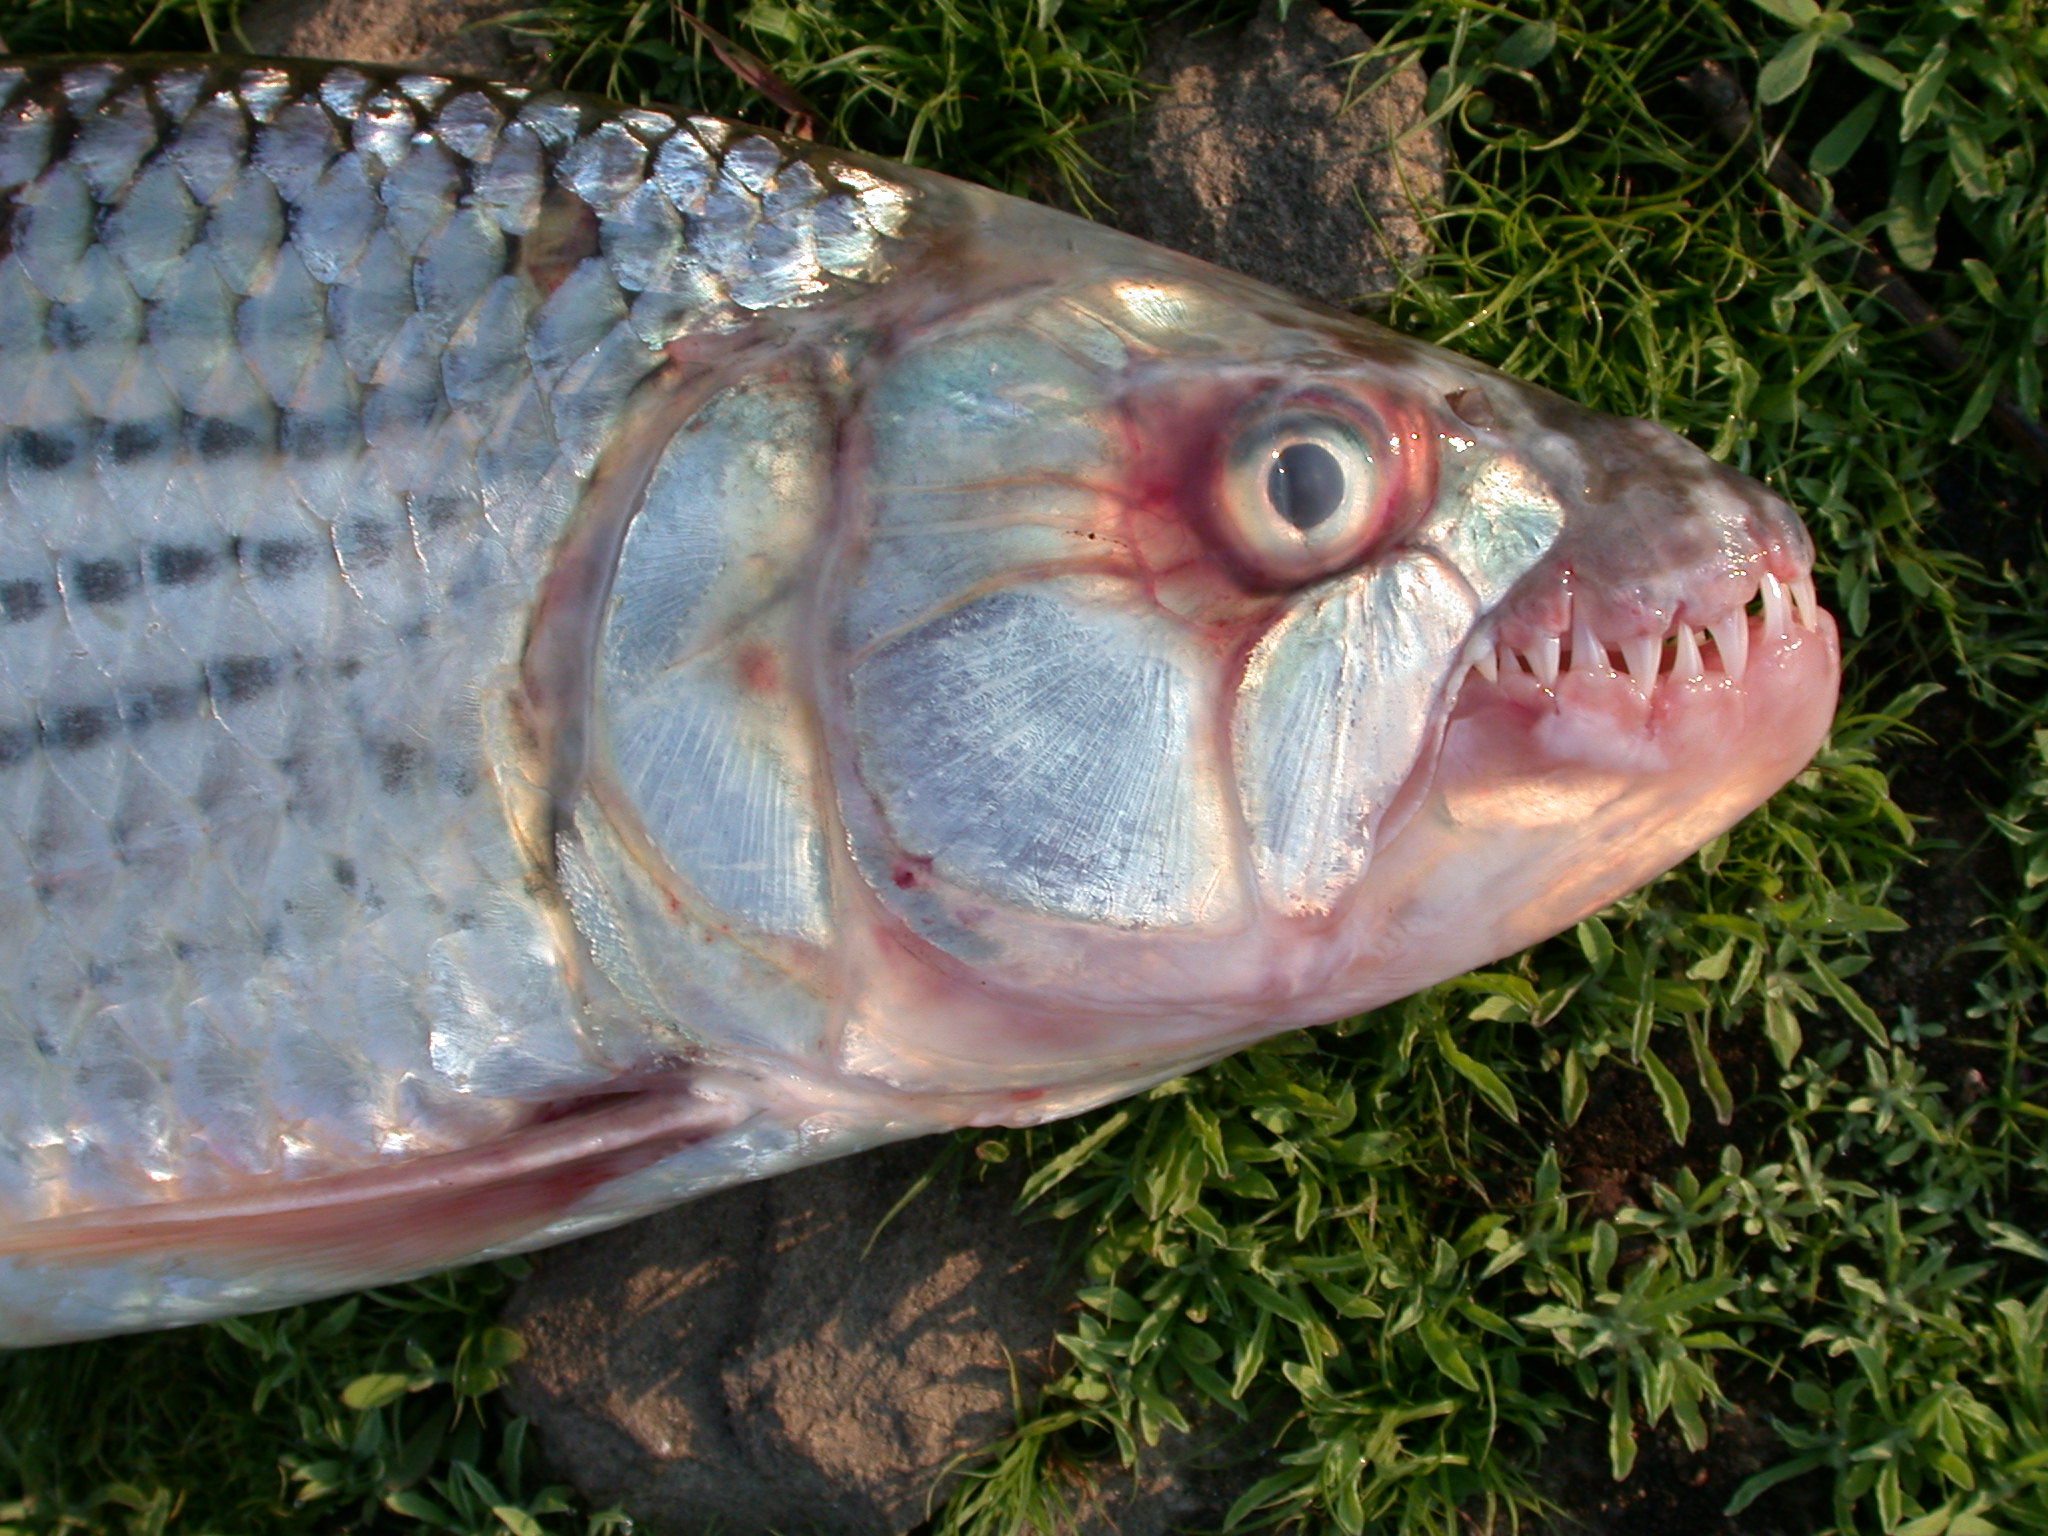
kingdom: Animalia
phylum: Chordata
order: Characiformes
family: Alestidae
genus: Hydrocynus
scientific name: Hydrocynus vittatus
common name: Tigerfish
